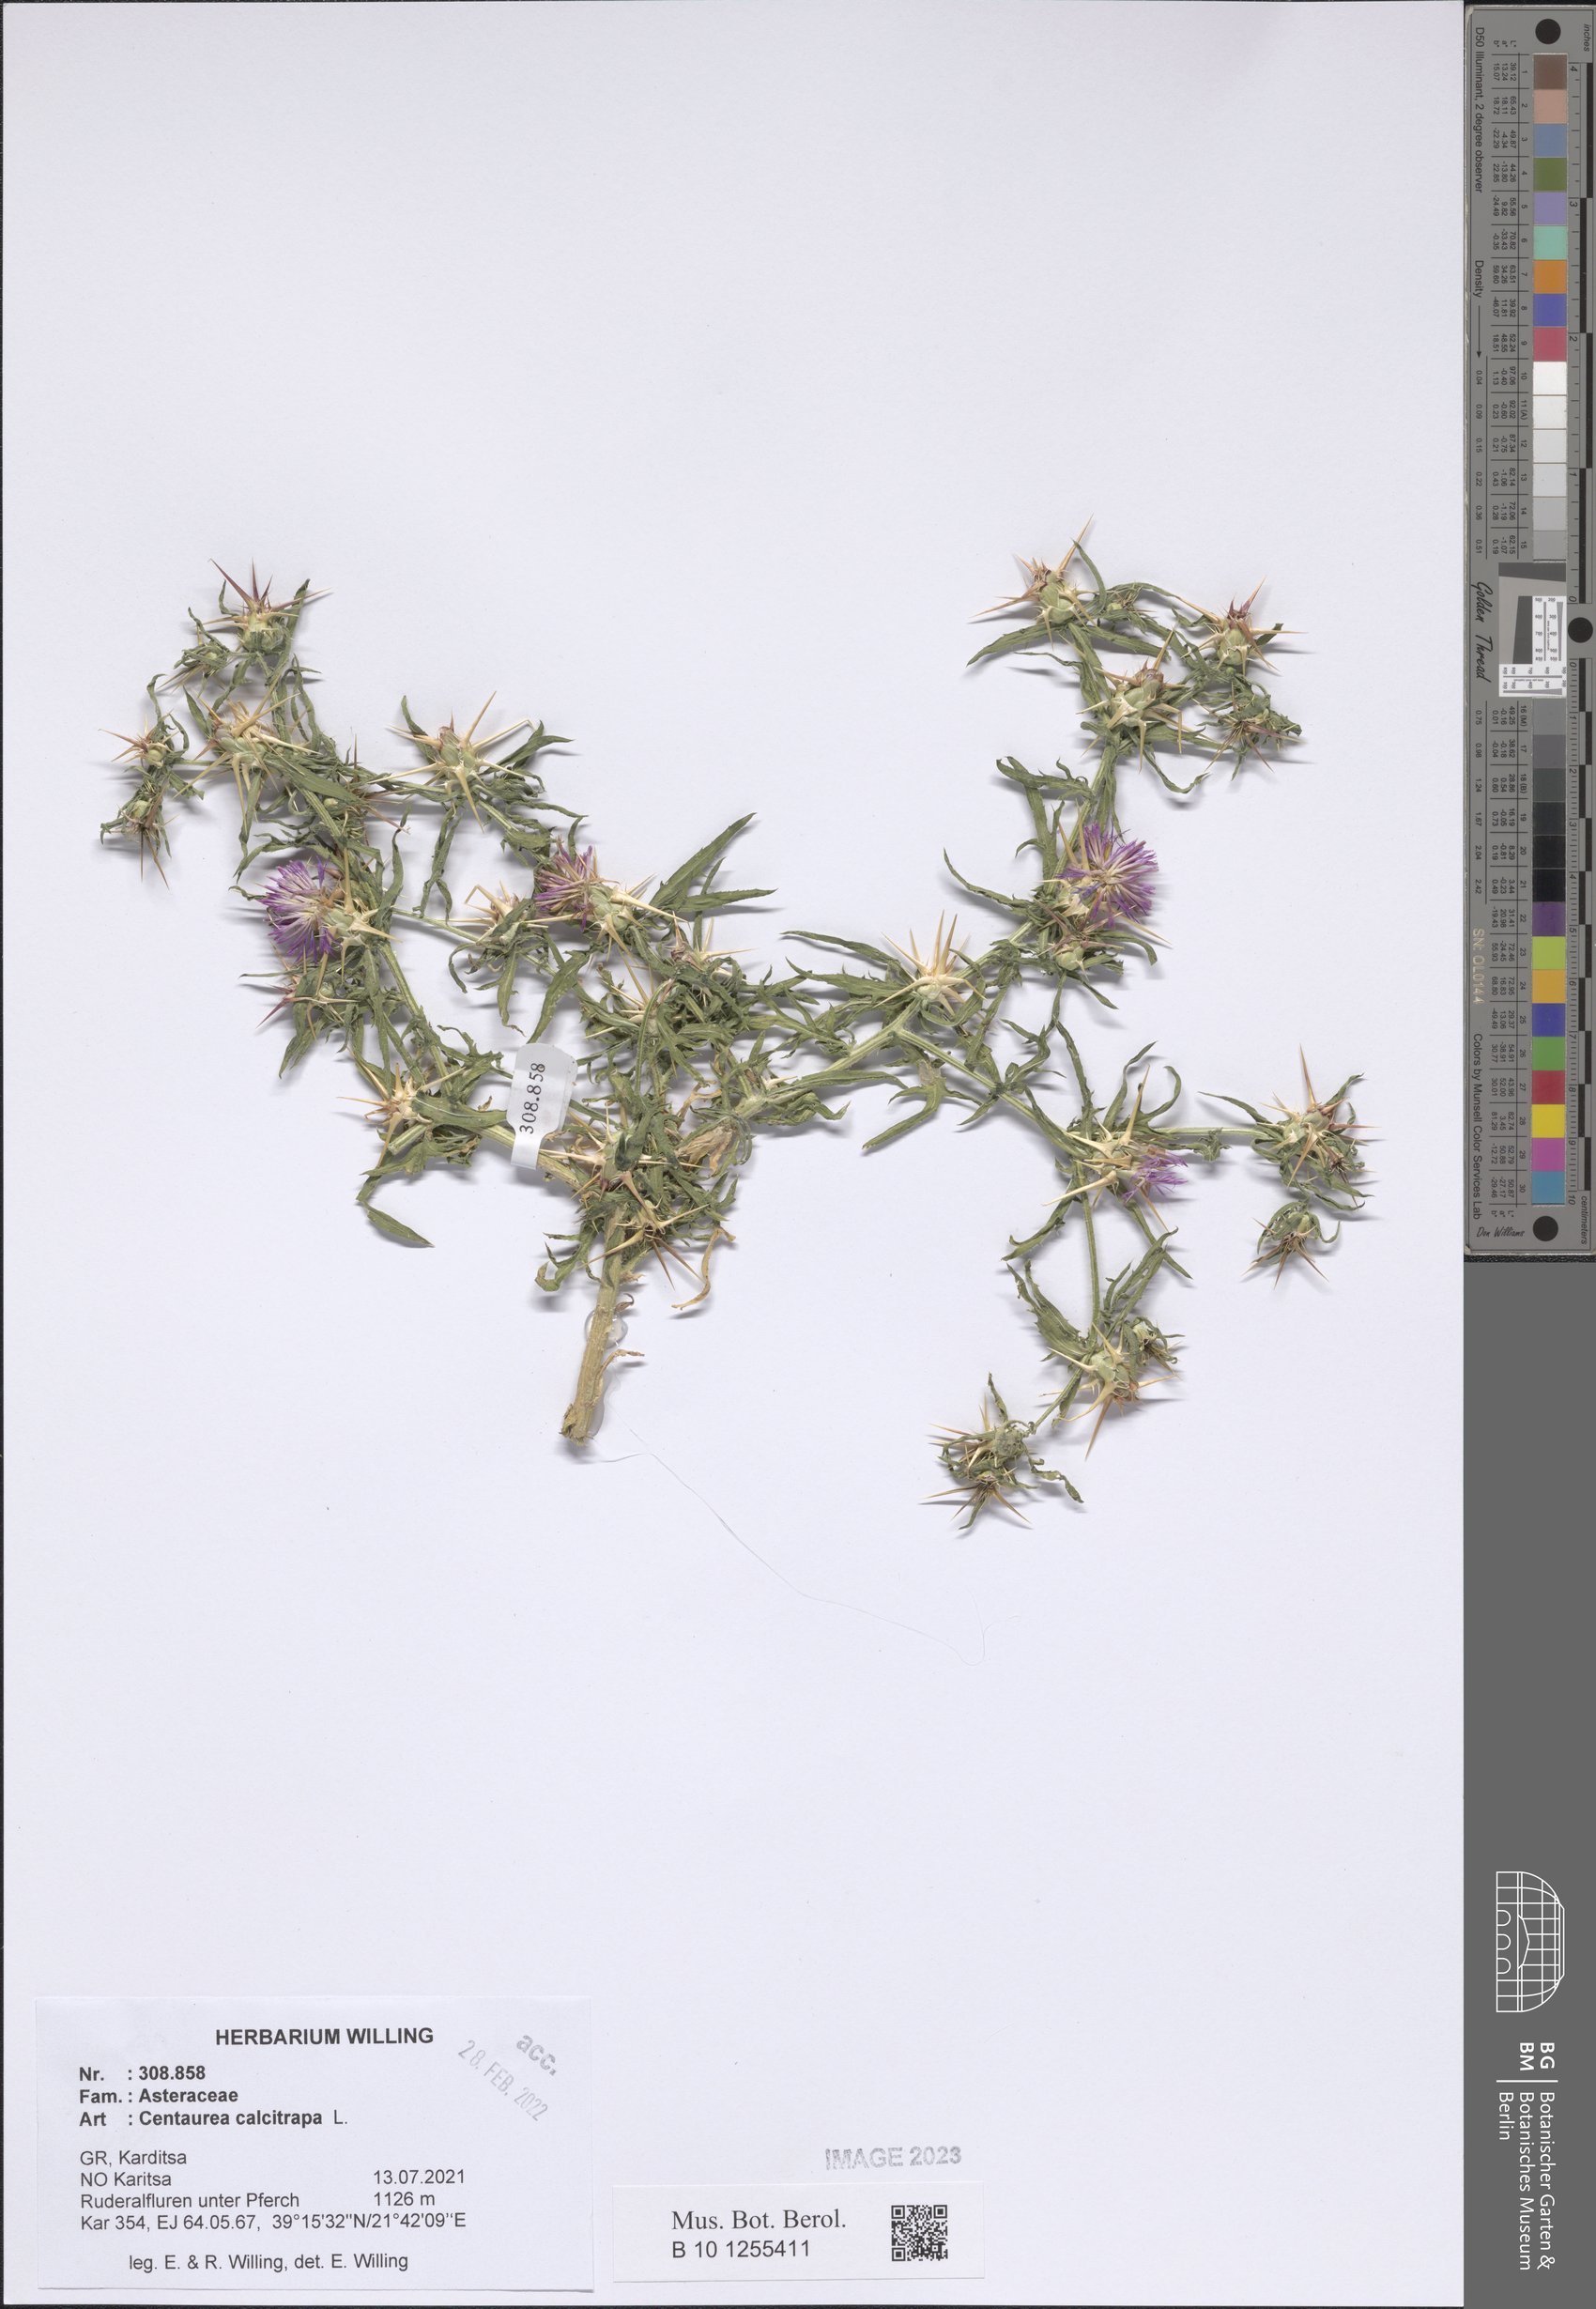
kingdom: Plantae
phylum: Tracheophyta
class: Magnoliopsida
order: Asterales
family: Asteraceae
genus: Centaurea
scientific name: Centaurea calcitrapa
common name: Red star-thistle
